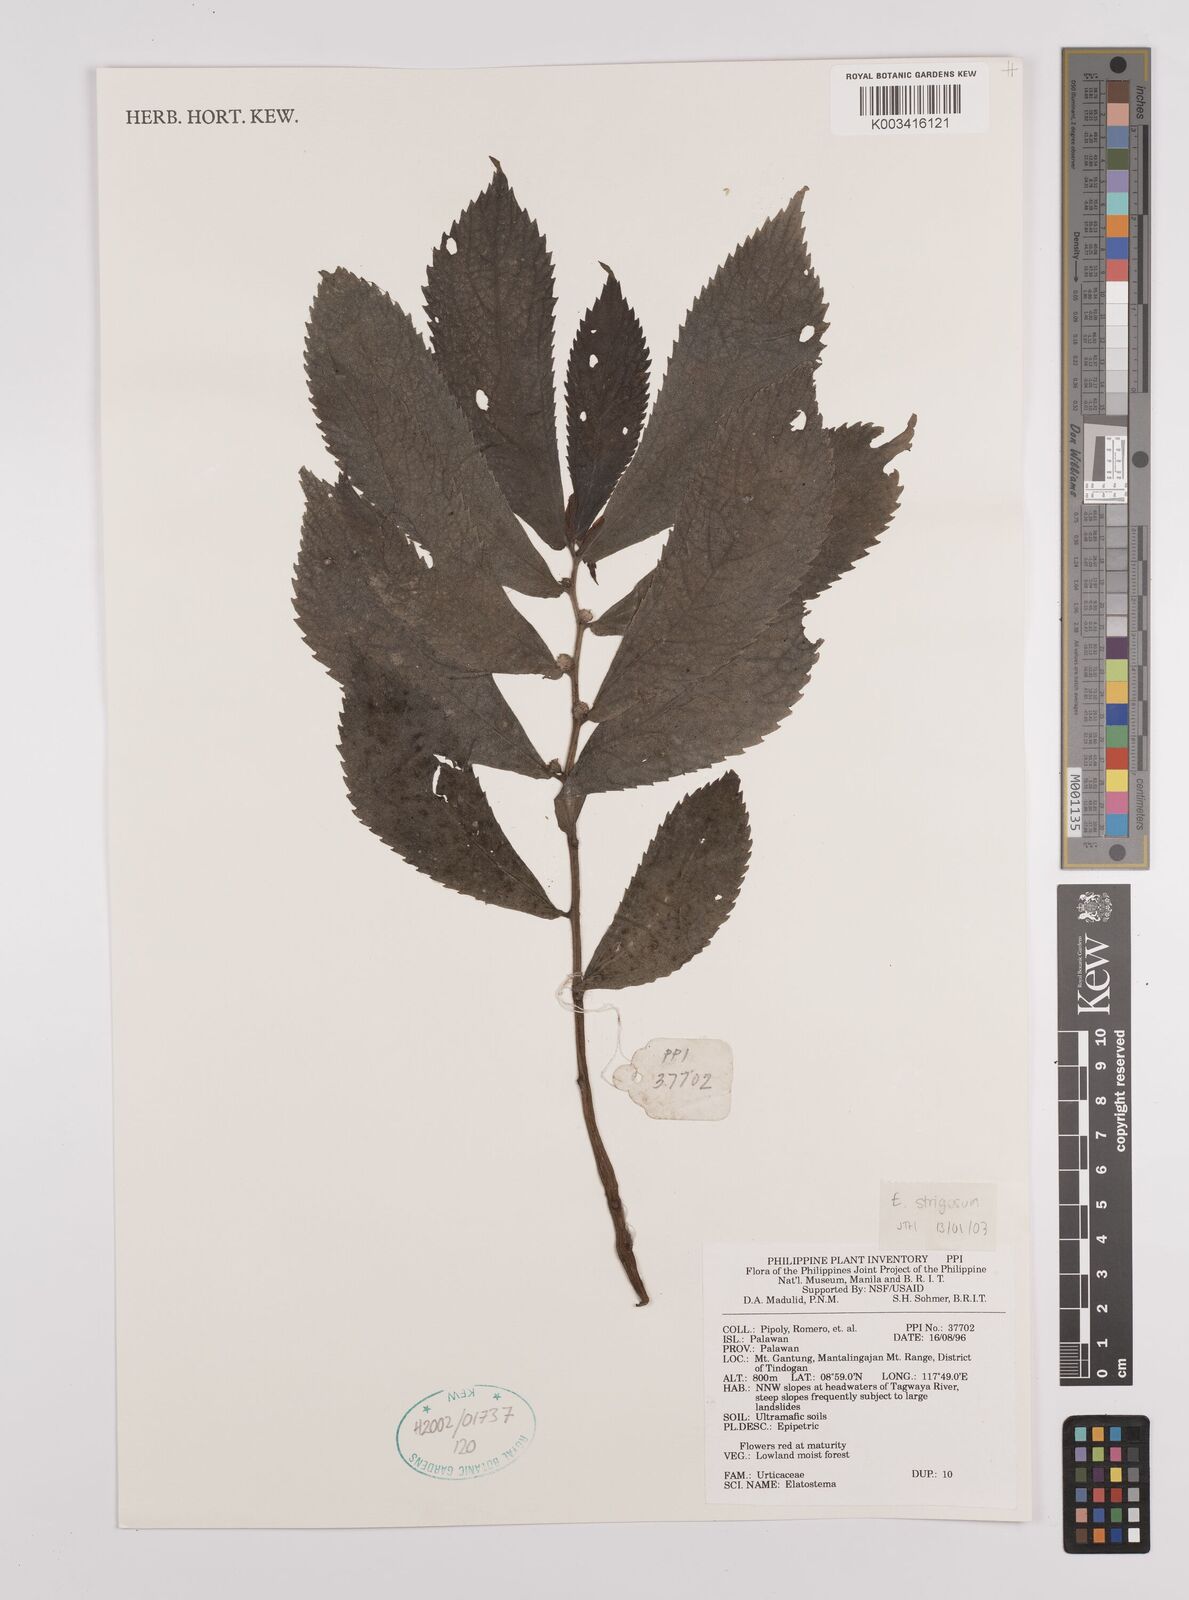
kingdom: Plantae
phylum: Tracheophyta
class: Magnoliopsida
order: Rosales
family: Urticaceae
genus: Elatostema
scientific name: Elatostema strigosum
